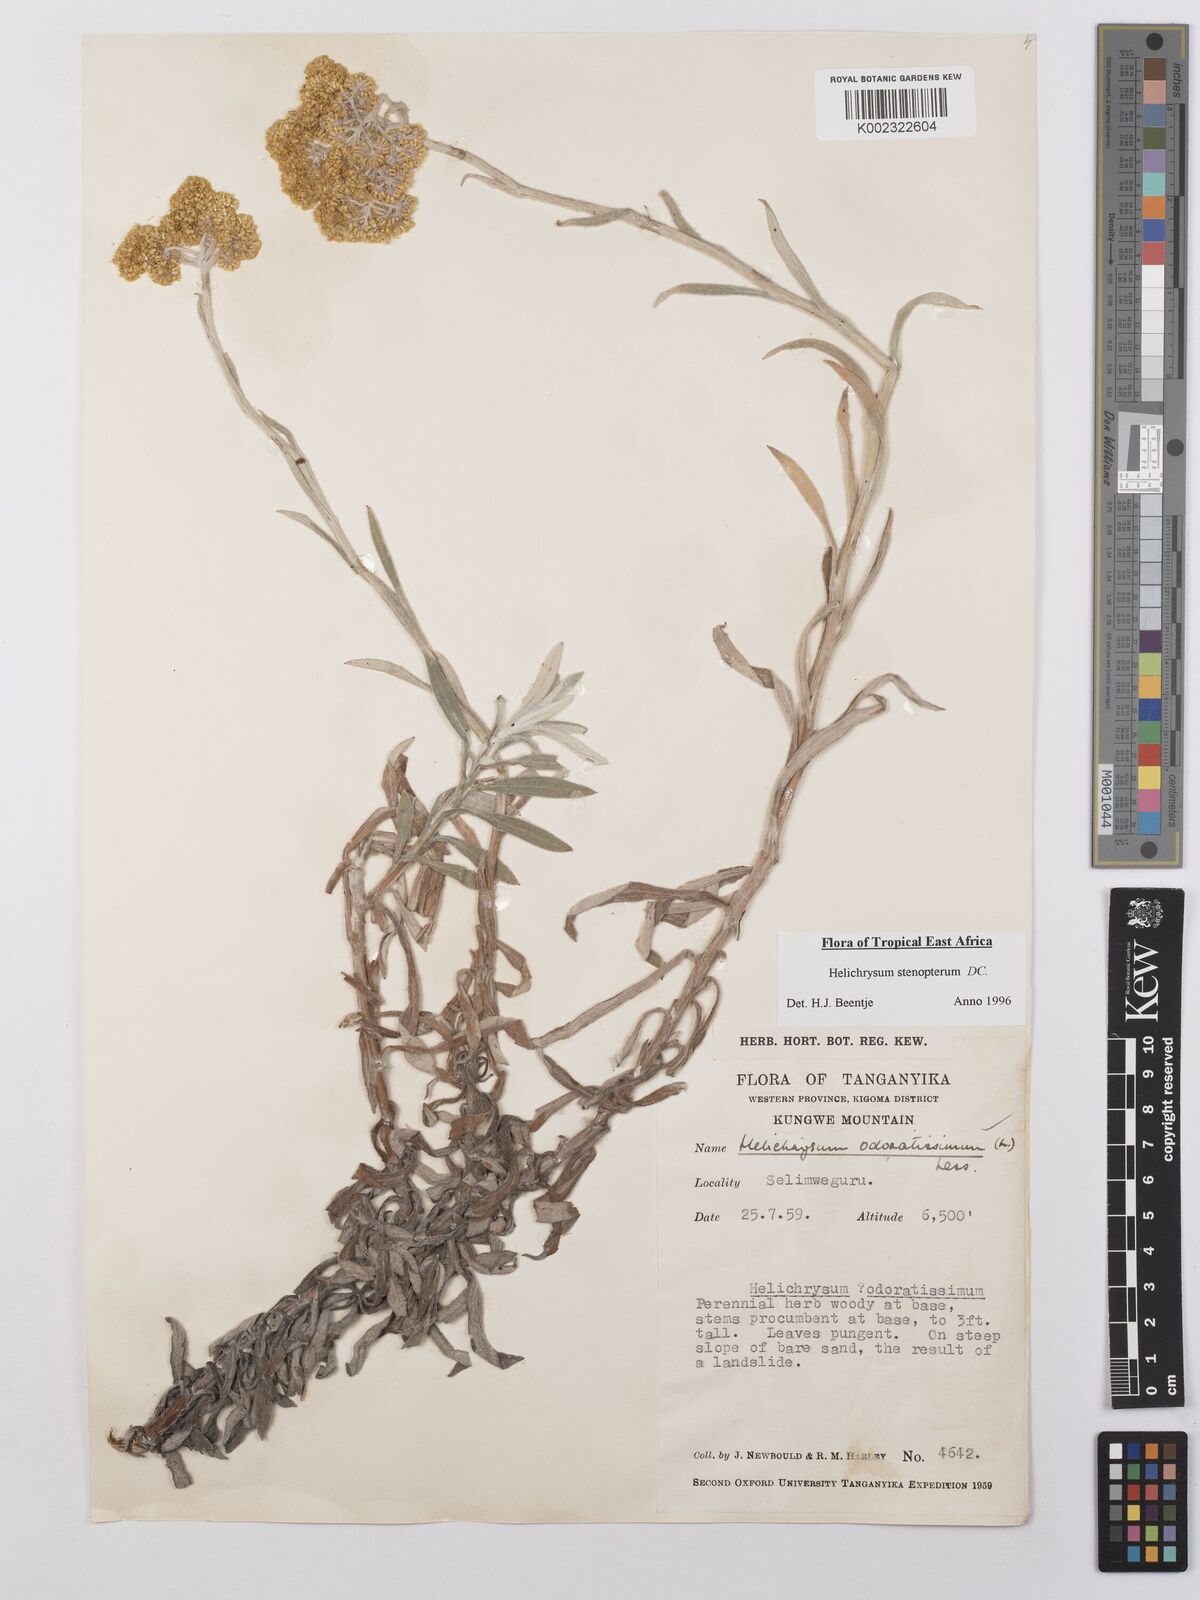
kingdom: Plantae
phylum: Tracheophyta
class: Magnoliopsida
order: Asterales
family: Asteraceae
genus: Helichrysum
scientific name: Helichrysum stenopterum
